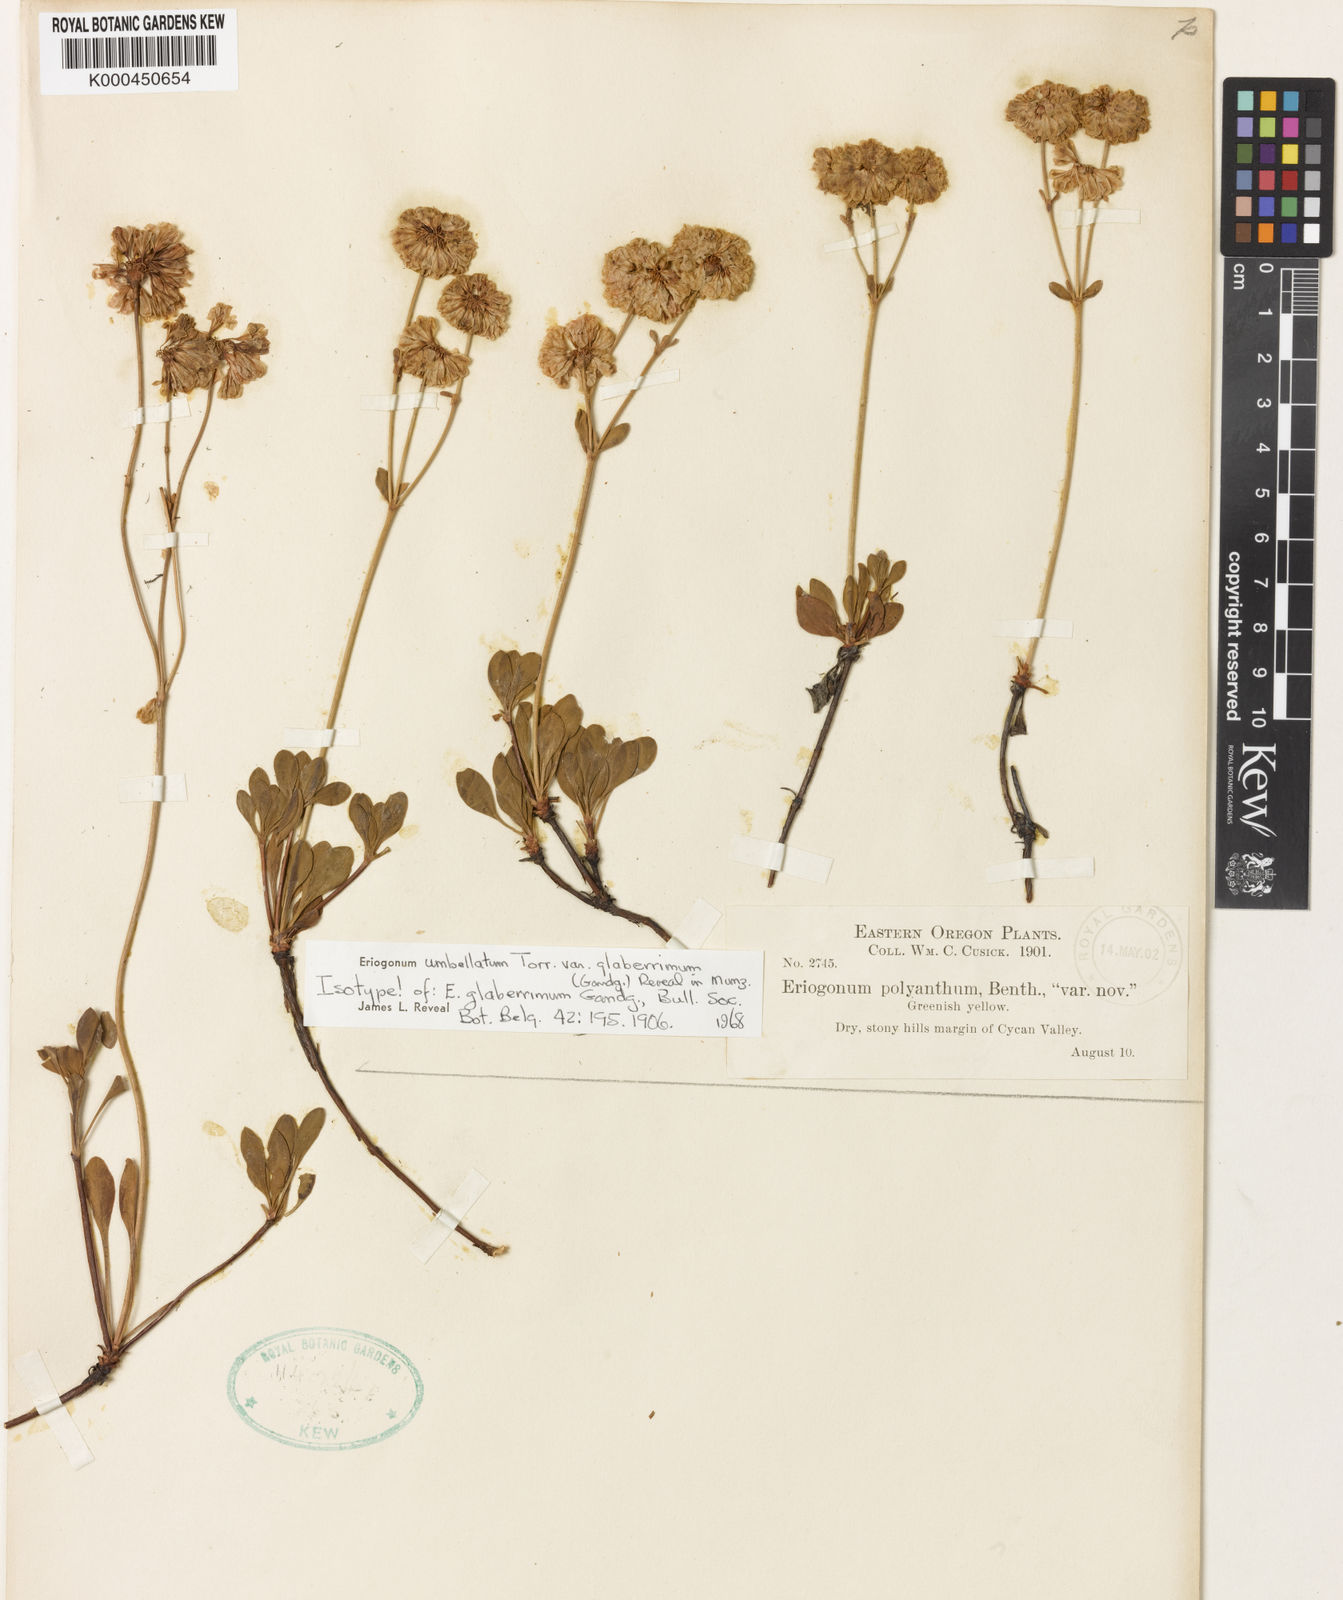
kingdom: Plantae
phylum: Tracheophyta
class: Magnoliopsida
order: Caryophyllales
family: Polygonaceae
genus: Eriogonum
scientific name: Eriogonum umbellatum
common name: Sulfur-buckwheat
